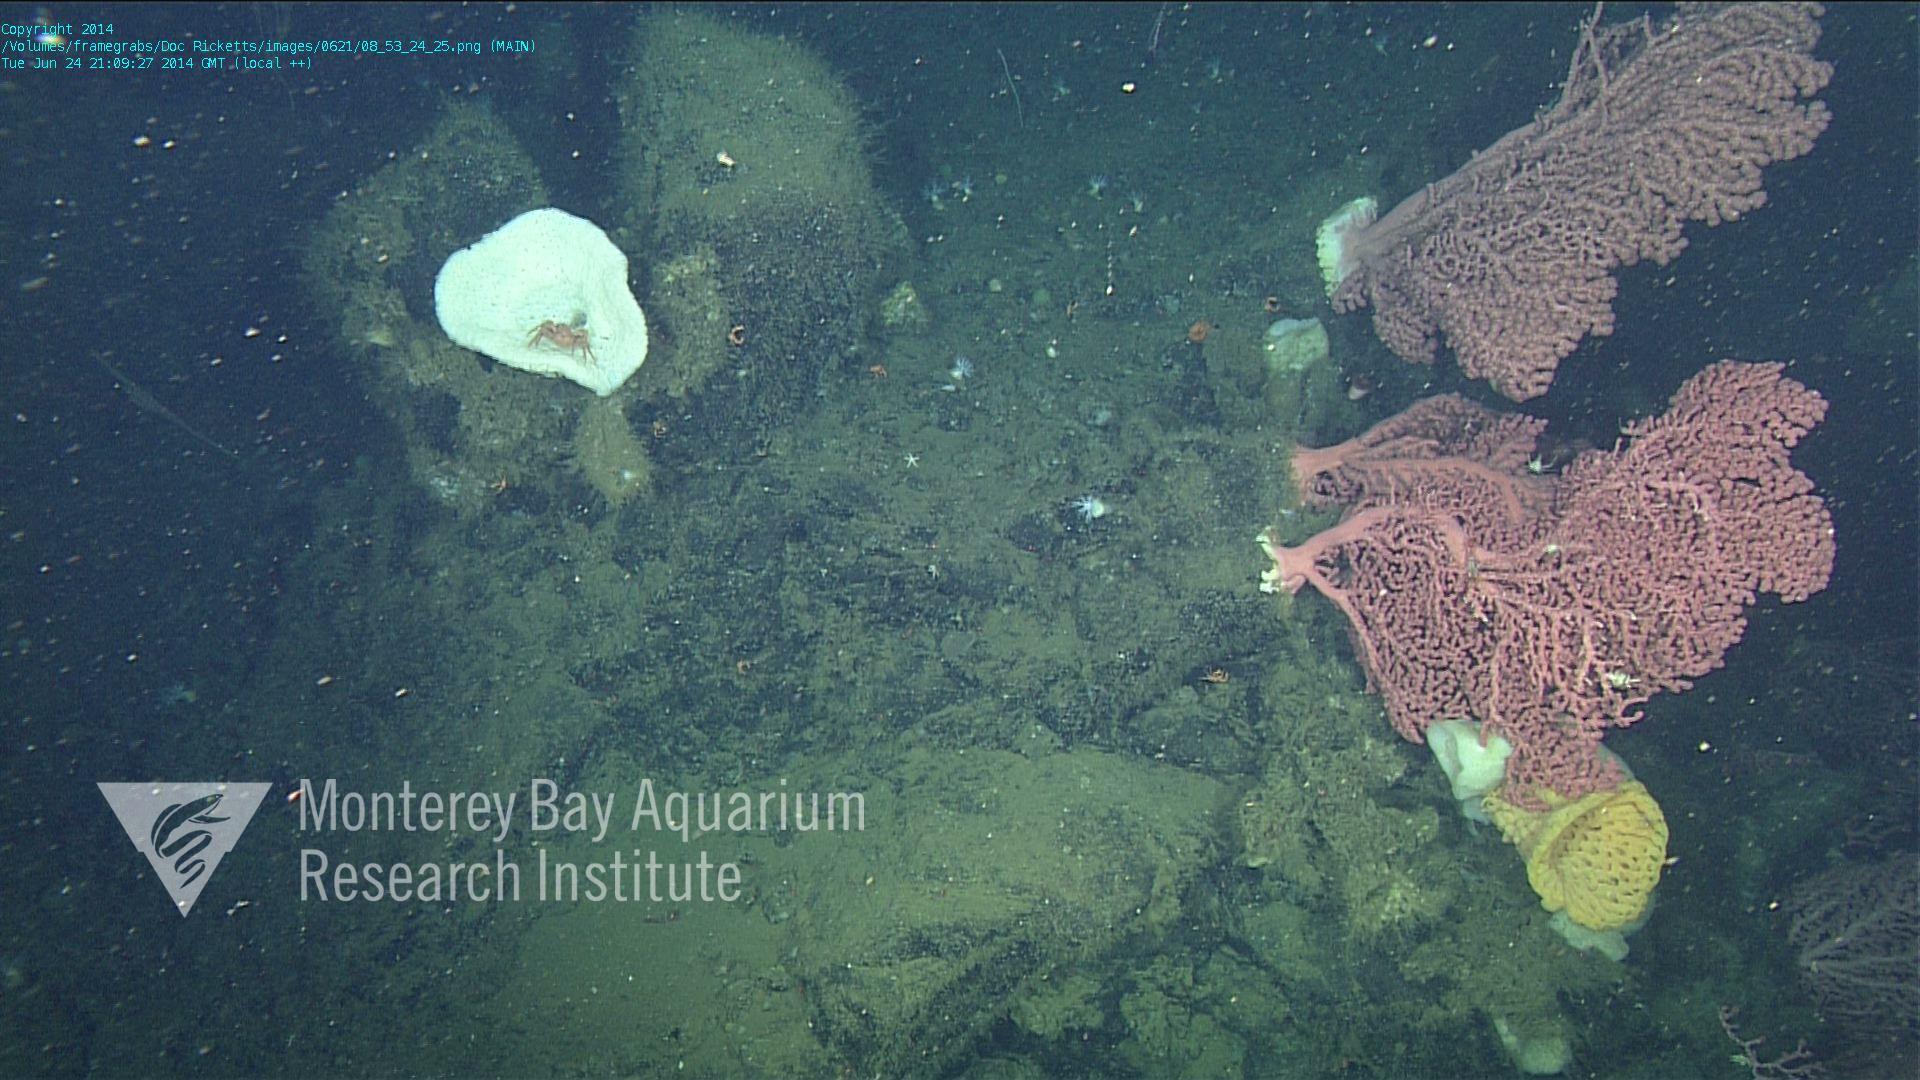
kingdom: Animalia
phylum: Cnidaria
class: Anthozoa
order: Scleralcyonacea
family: Coralliidae
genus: Paragorgia
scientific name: Paragorgia arborea
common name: Bubble gum coral
